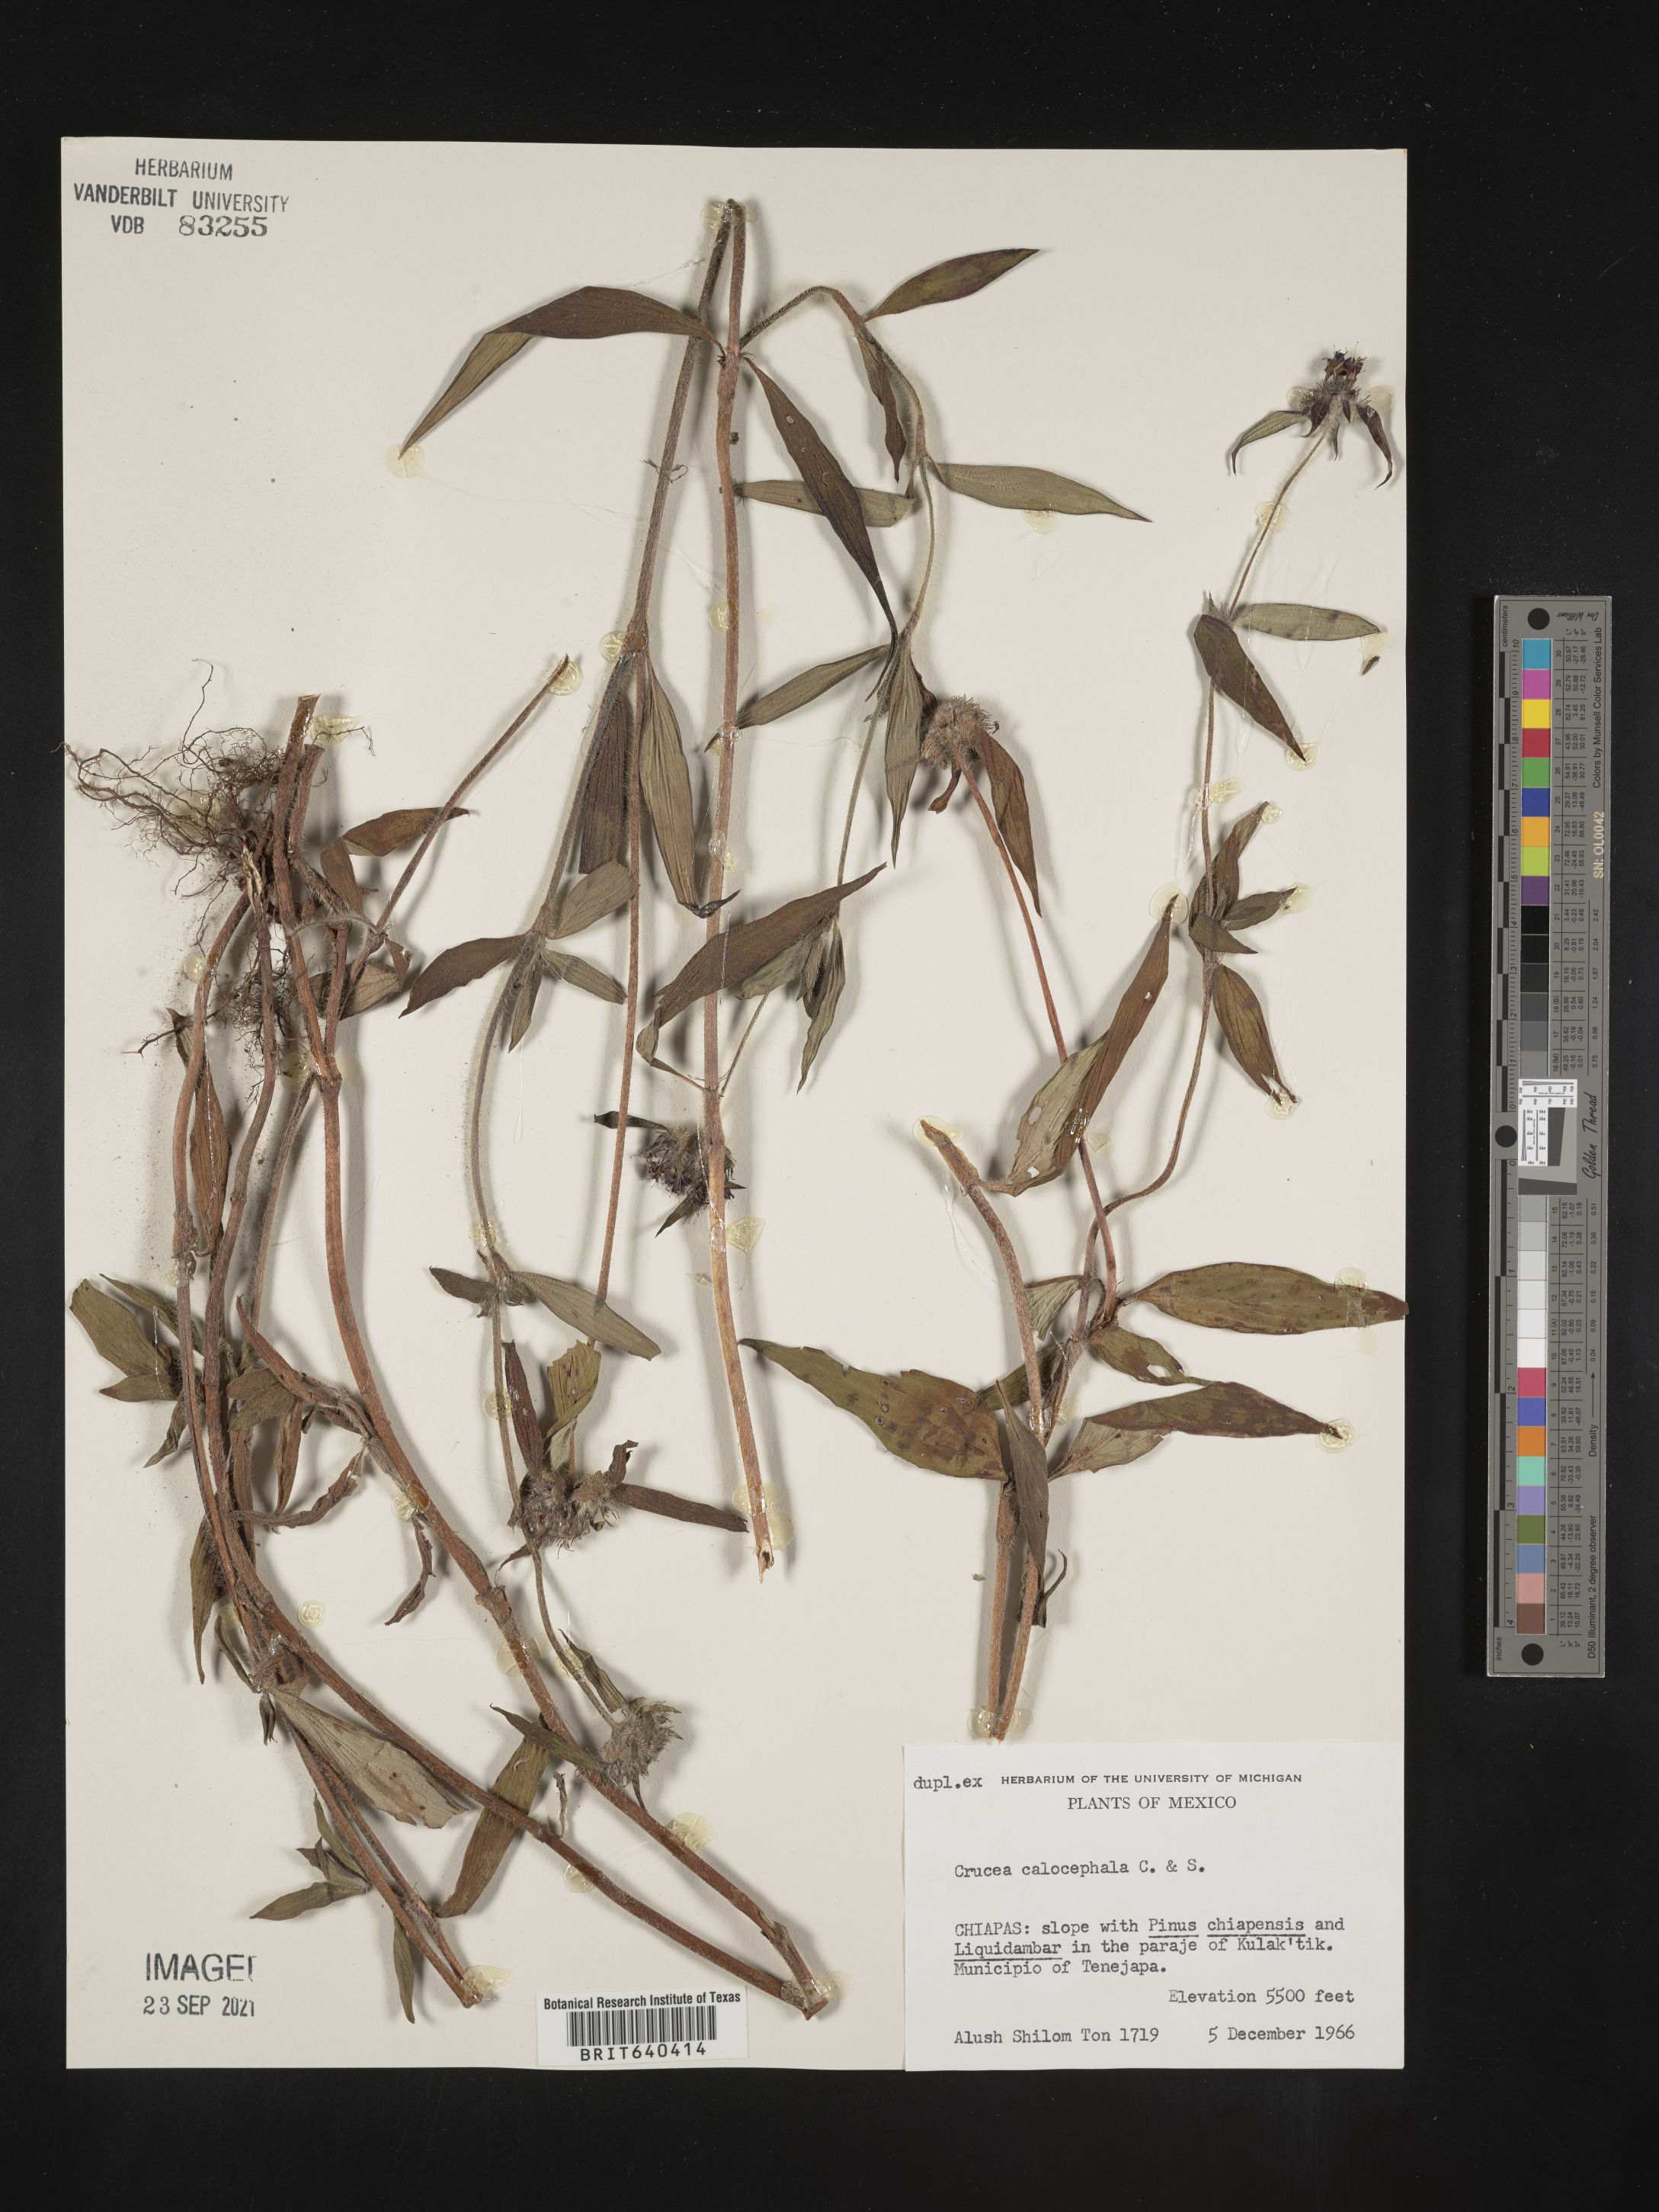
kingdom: Plantae
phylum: Tracheophyta
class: Magnoliopsida
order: Gentianales
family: Rubiaceae
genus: Crusea
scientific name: Crusea
